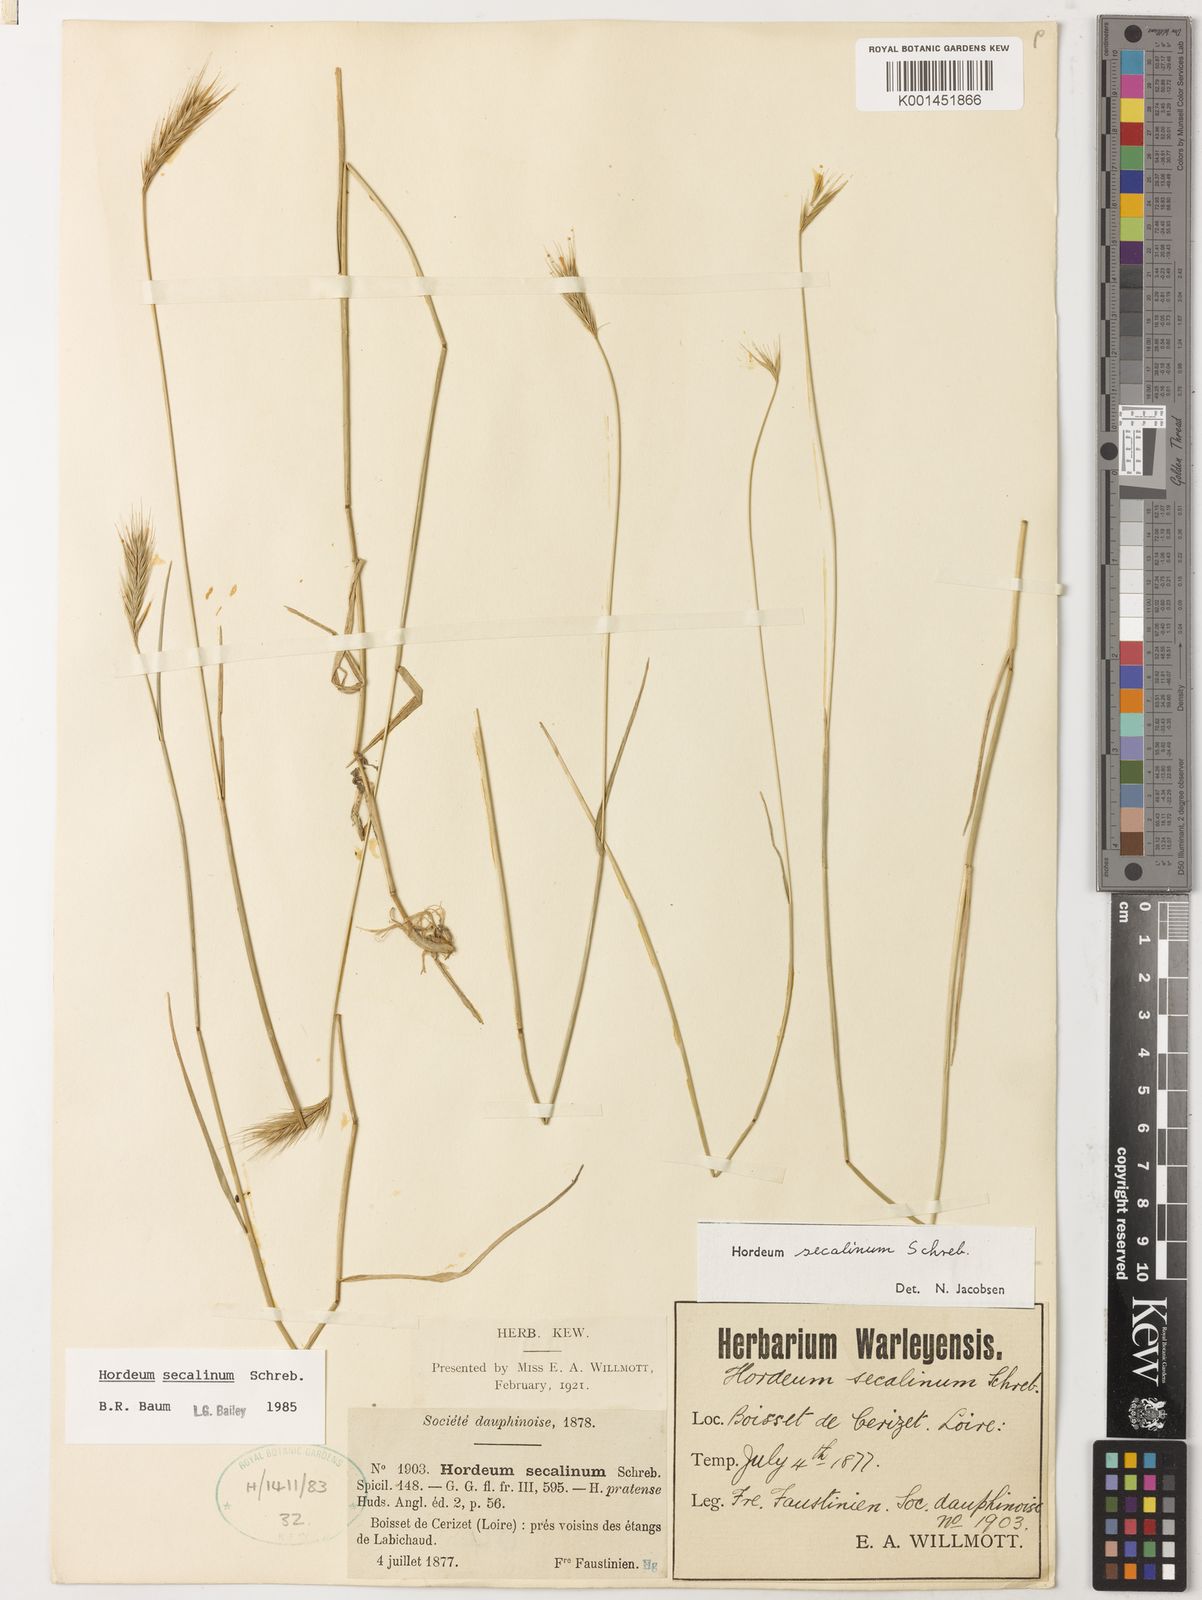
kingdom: Plantae
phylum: Tracheophyta
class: Liliopsida
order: Poales
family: Poaceae
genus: Hordeum
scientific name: Hordeum secalinum
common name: Meadow barley
